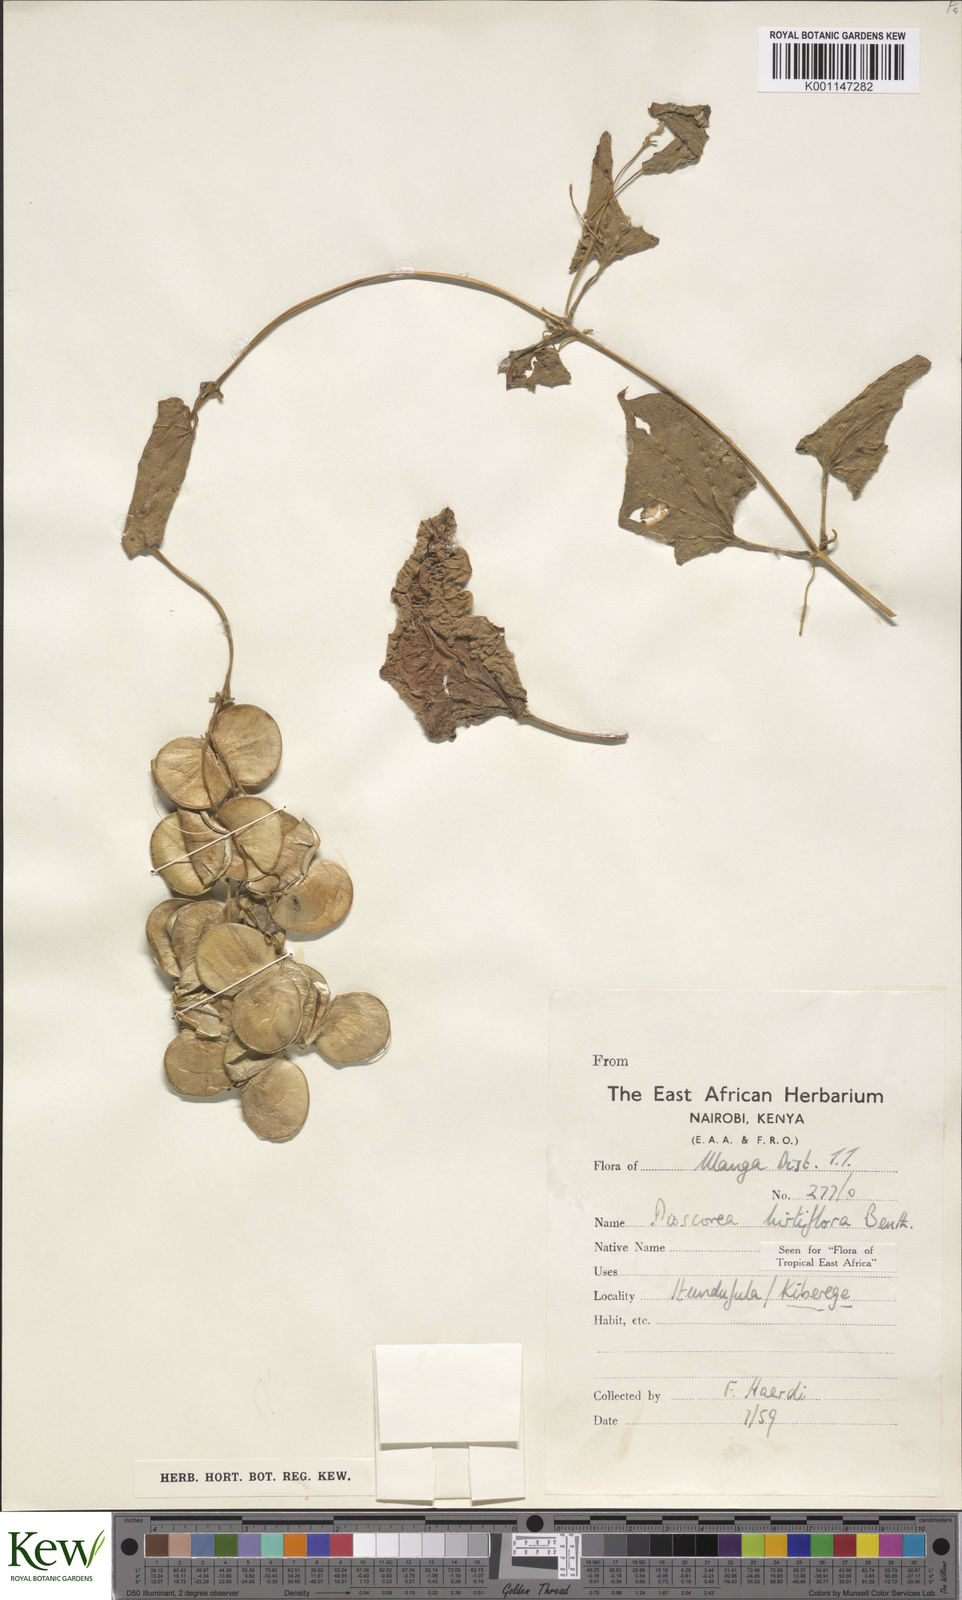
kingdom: Plantae
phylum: Tracheophyta
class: Liliopsida
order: Dioscoreales
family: Dioscoreaceae
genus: Dioscorea
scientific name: Dioscorea hirtiflora
